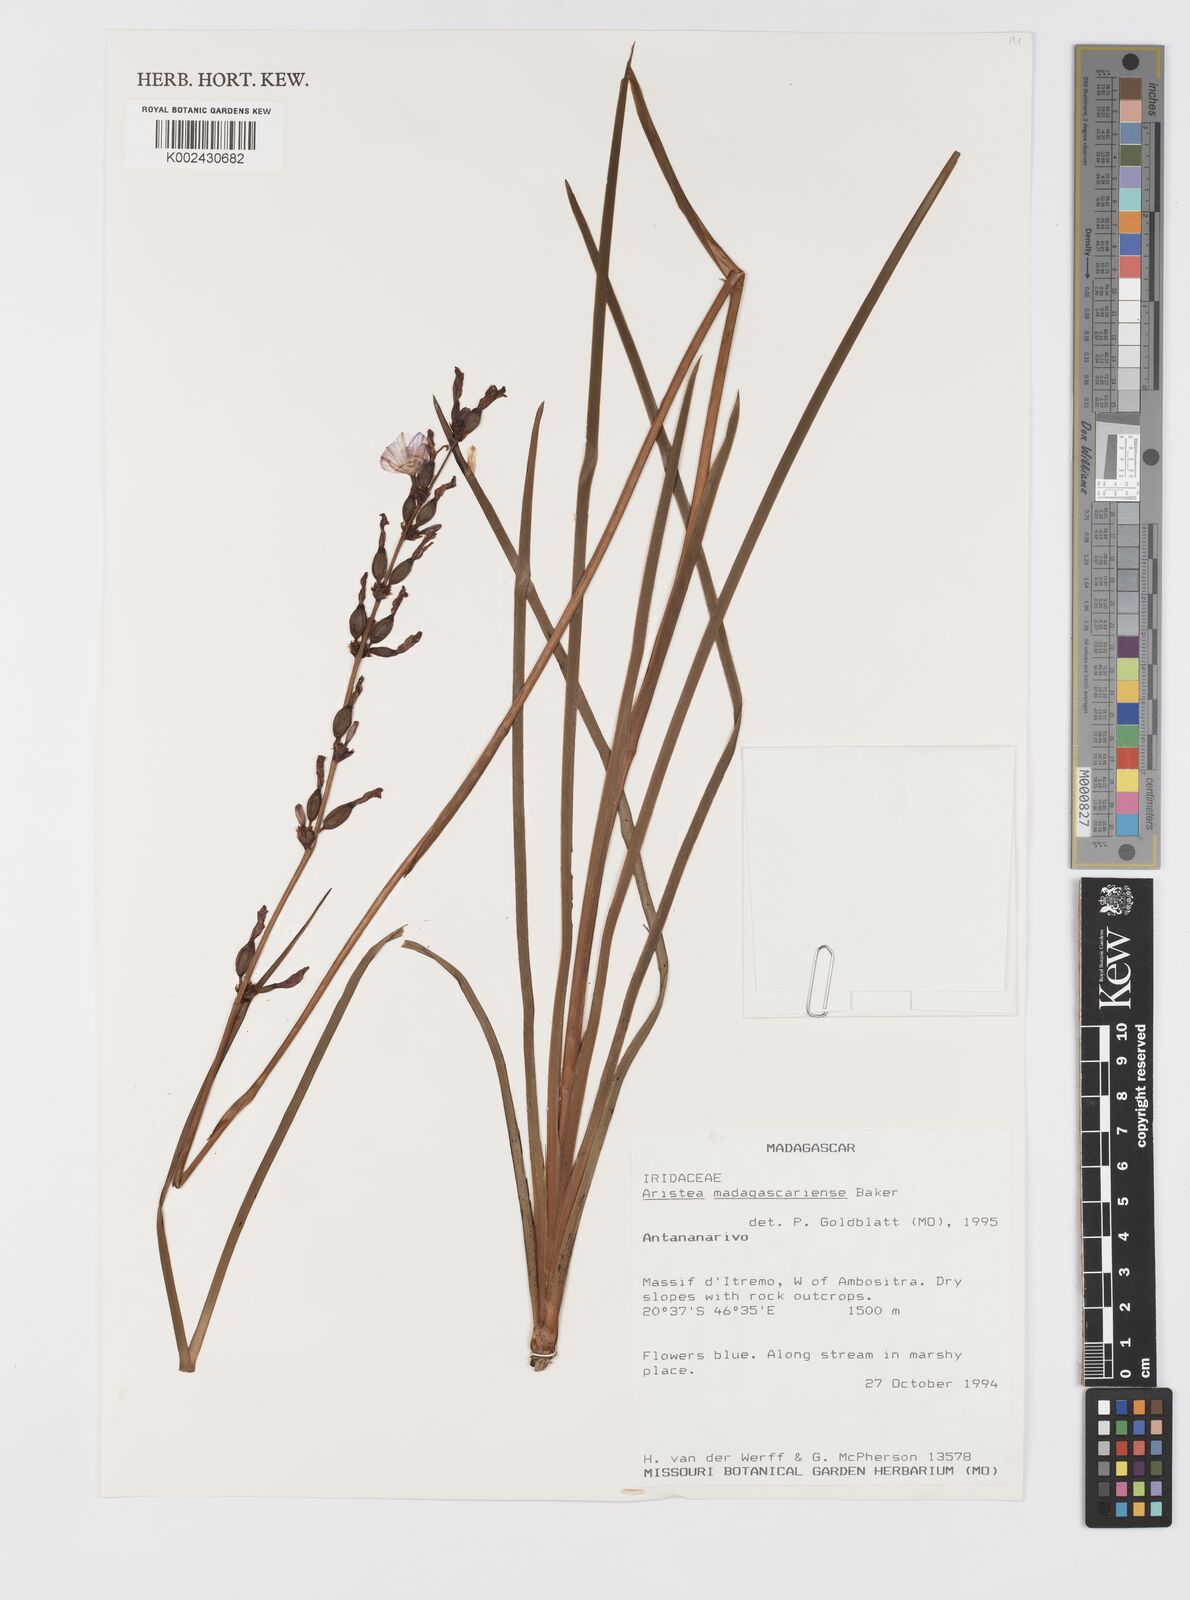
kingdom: Plantae
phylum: Tracheophyta
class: Liliopsida
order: Asparagales
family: Iridaceae
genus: Aristea
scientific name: Aristea madagascariensis
